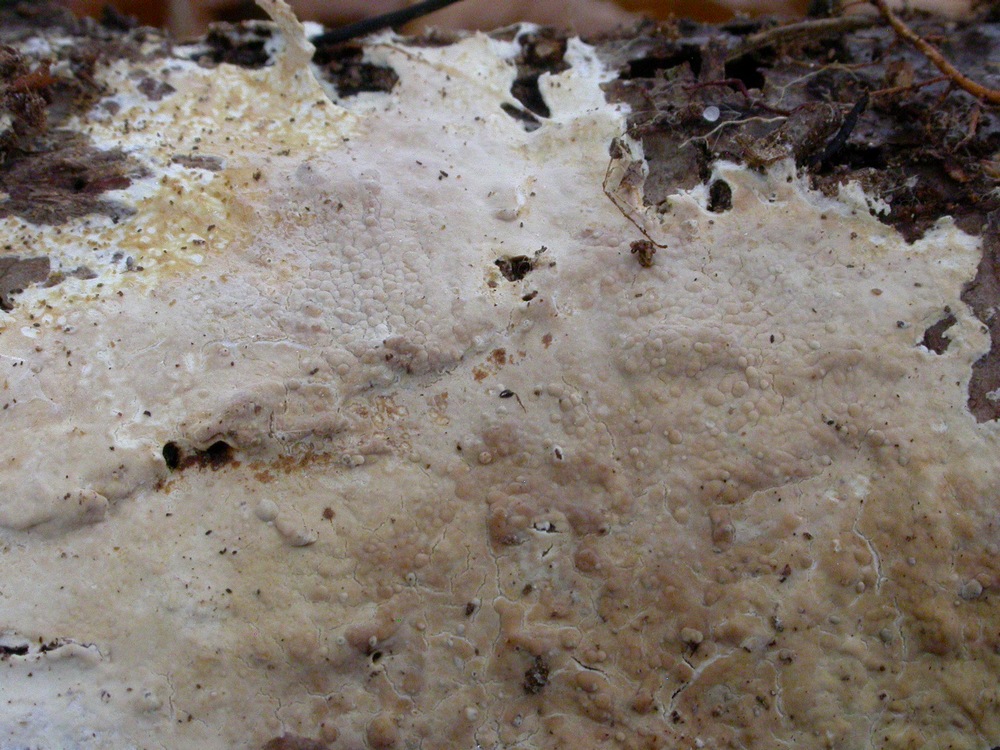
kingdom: Fungi
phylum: Basidiomycota
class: Agaricomycetes
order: Polyporales
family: Phanerochaetaceae
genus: Phanerochaete
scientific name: Phanerochaete laevis
